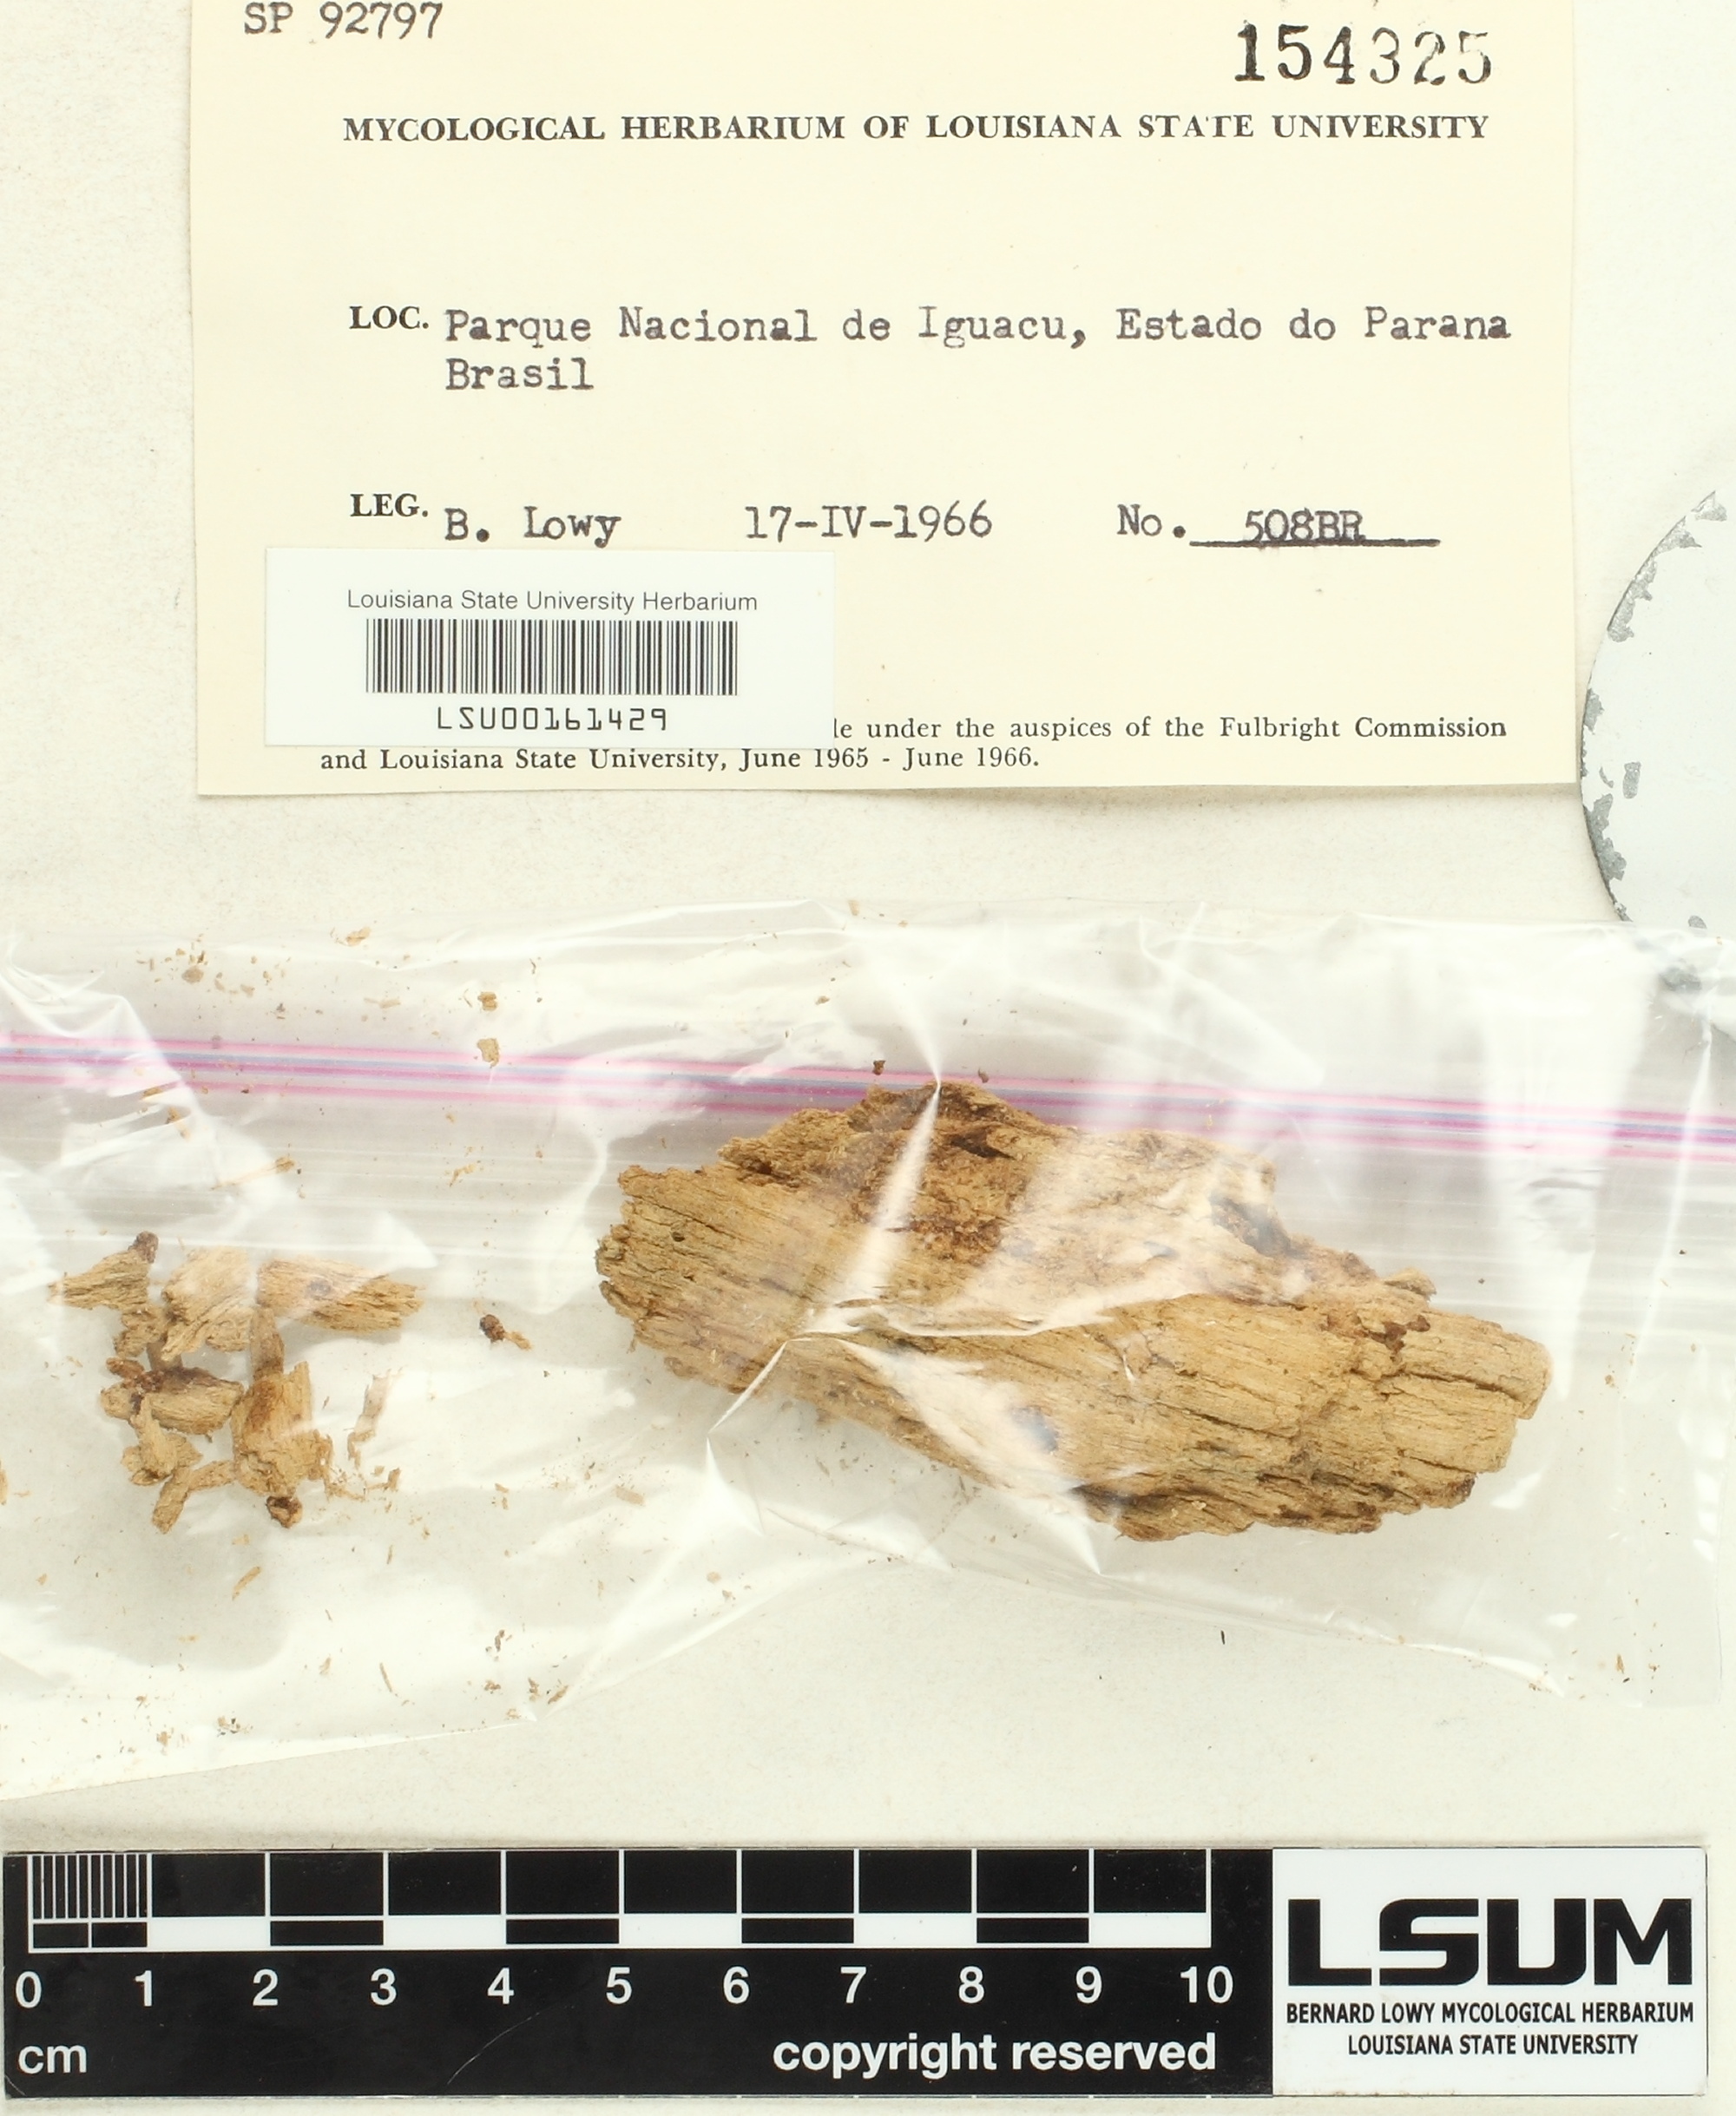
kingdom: Fungi
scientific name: Fungi
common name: Fungi
